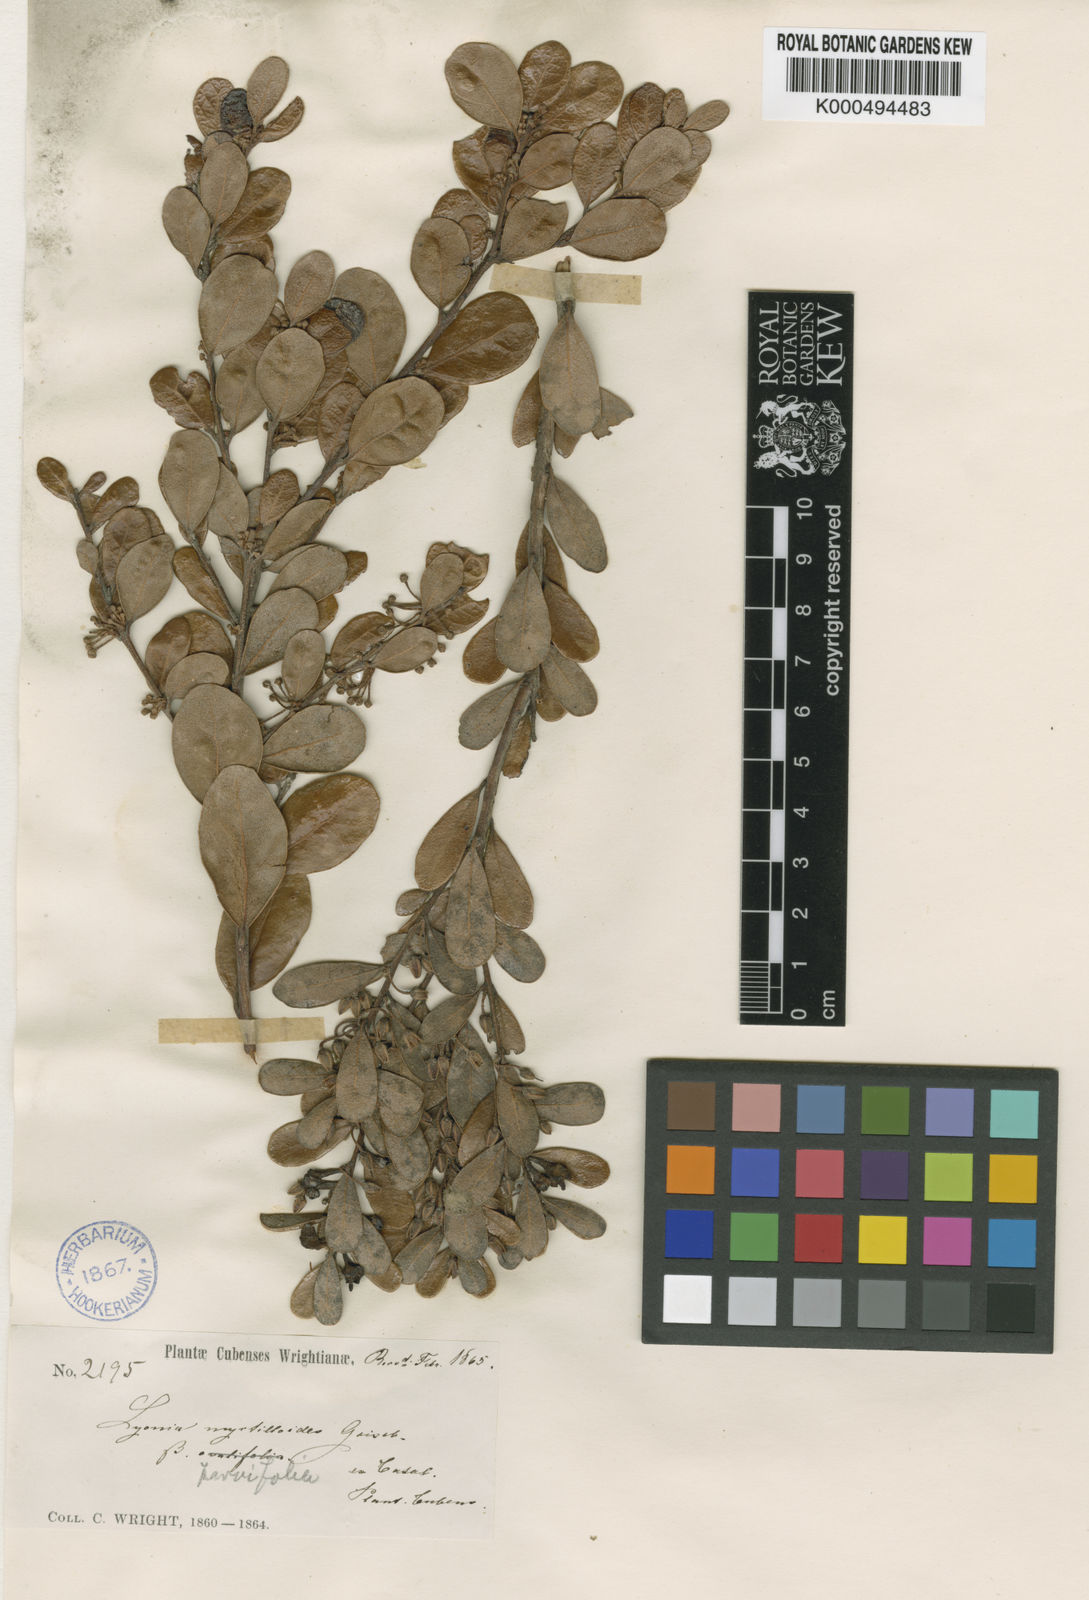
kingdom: Plantae
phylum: Tracheophyta
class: Magnoliopsida
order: Ericales
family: Ericaceae
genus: Lyonia
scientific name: Lyonia myrtilloides
